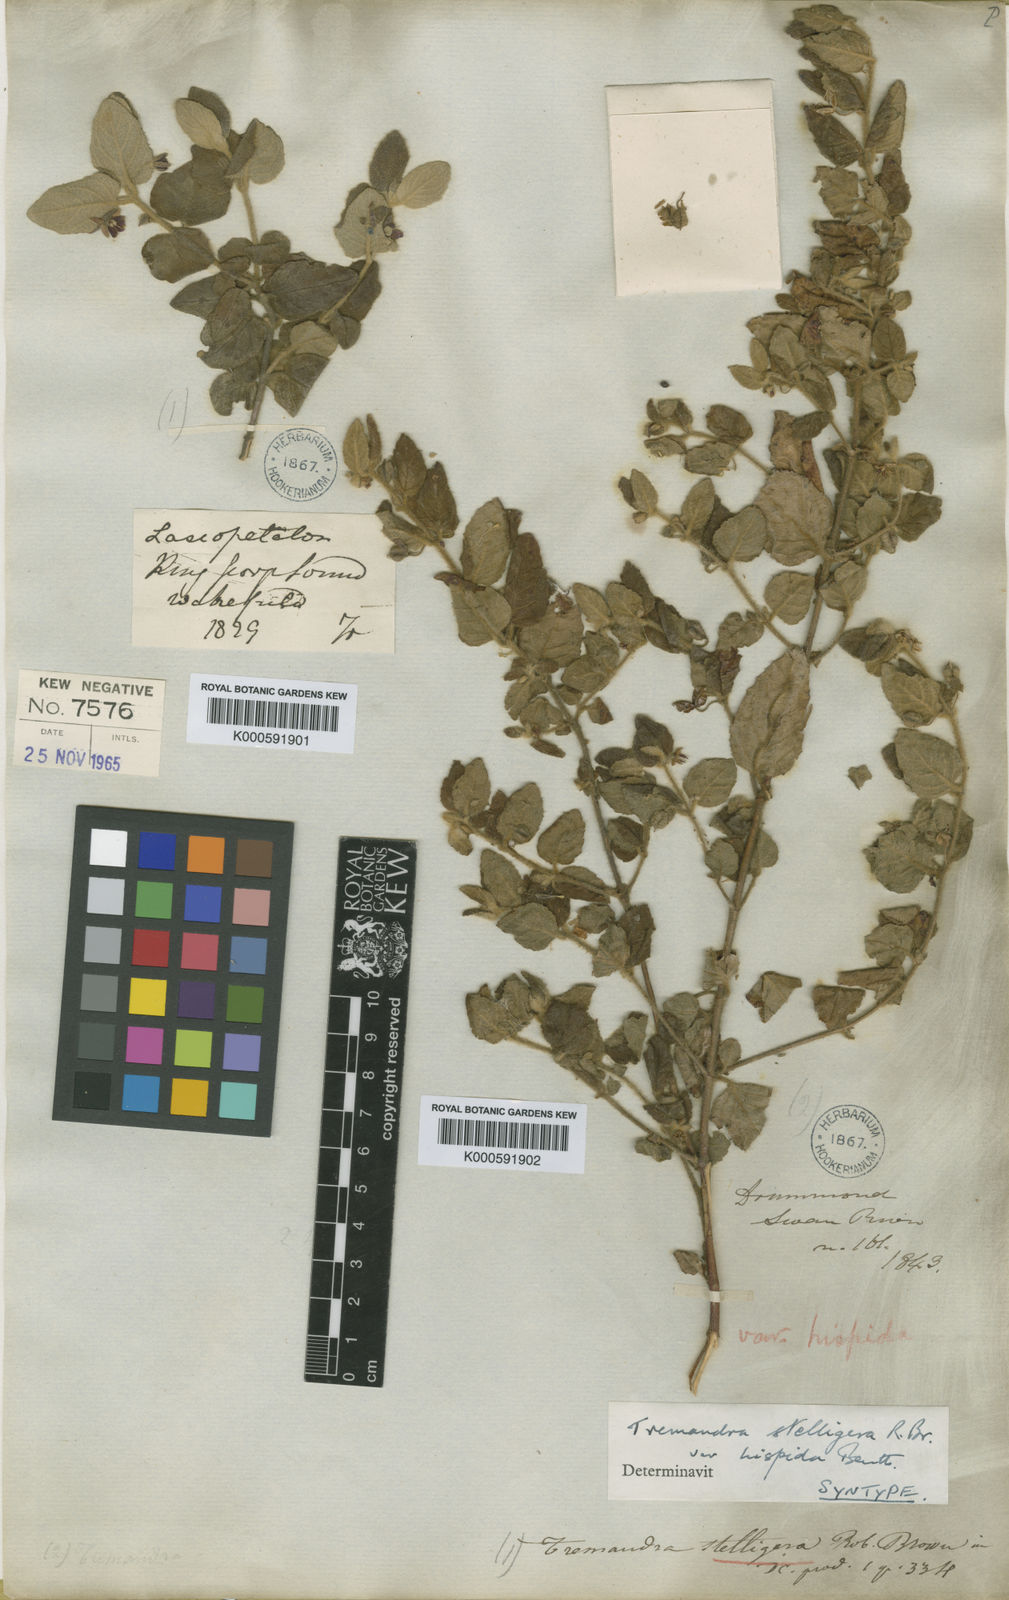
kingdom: Plantae
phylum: Tracheophyta
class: Magnoliopsida
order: Oxalidales
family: Elaeocarpaceae
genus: Tremandra
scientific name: Tremandra stelligera
